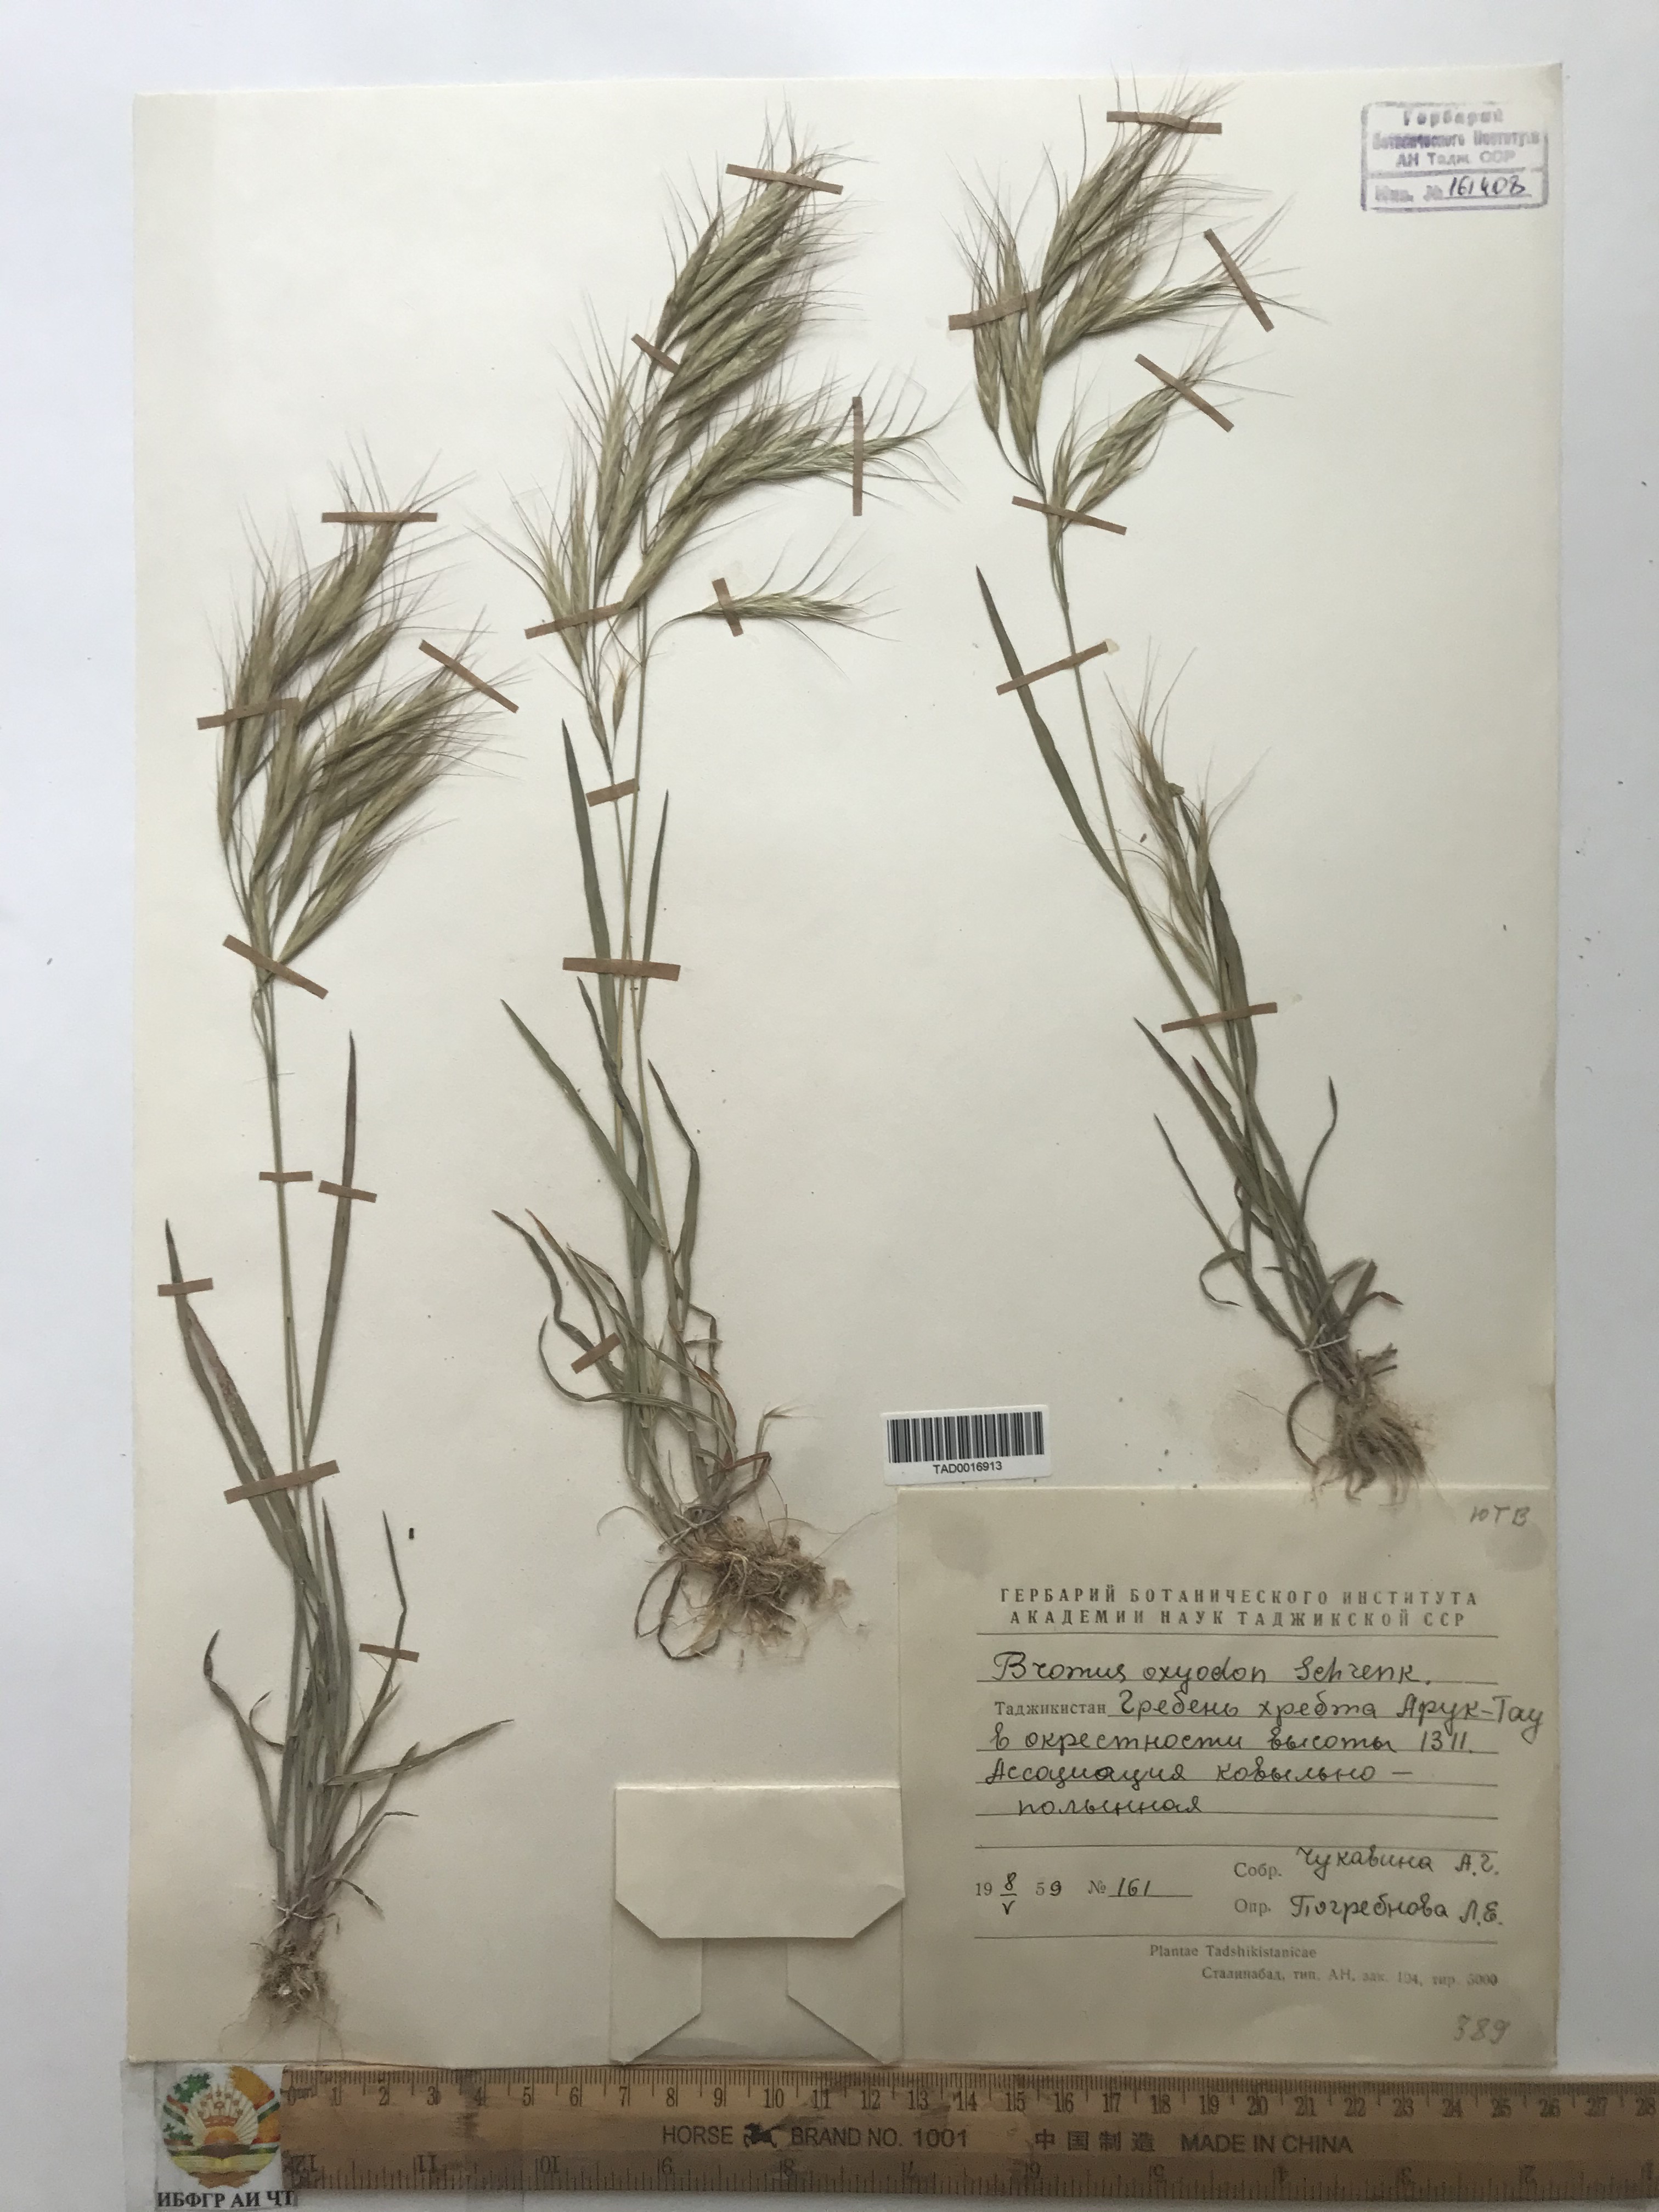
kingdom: Plantae
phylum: Tracheophyta
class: Liliopsida
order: Poales
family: Poaceae
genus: Bromus
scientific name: Bromus oxyodon
